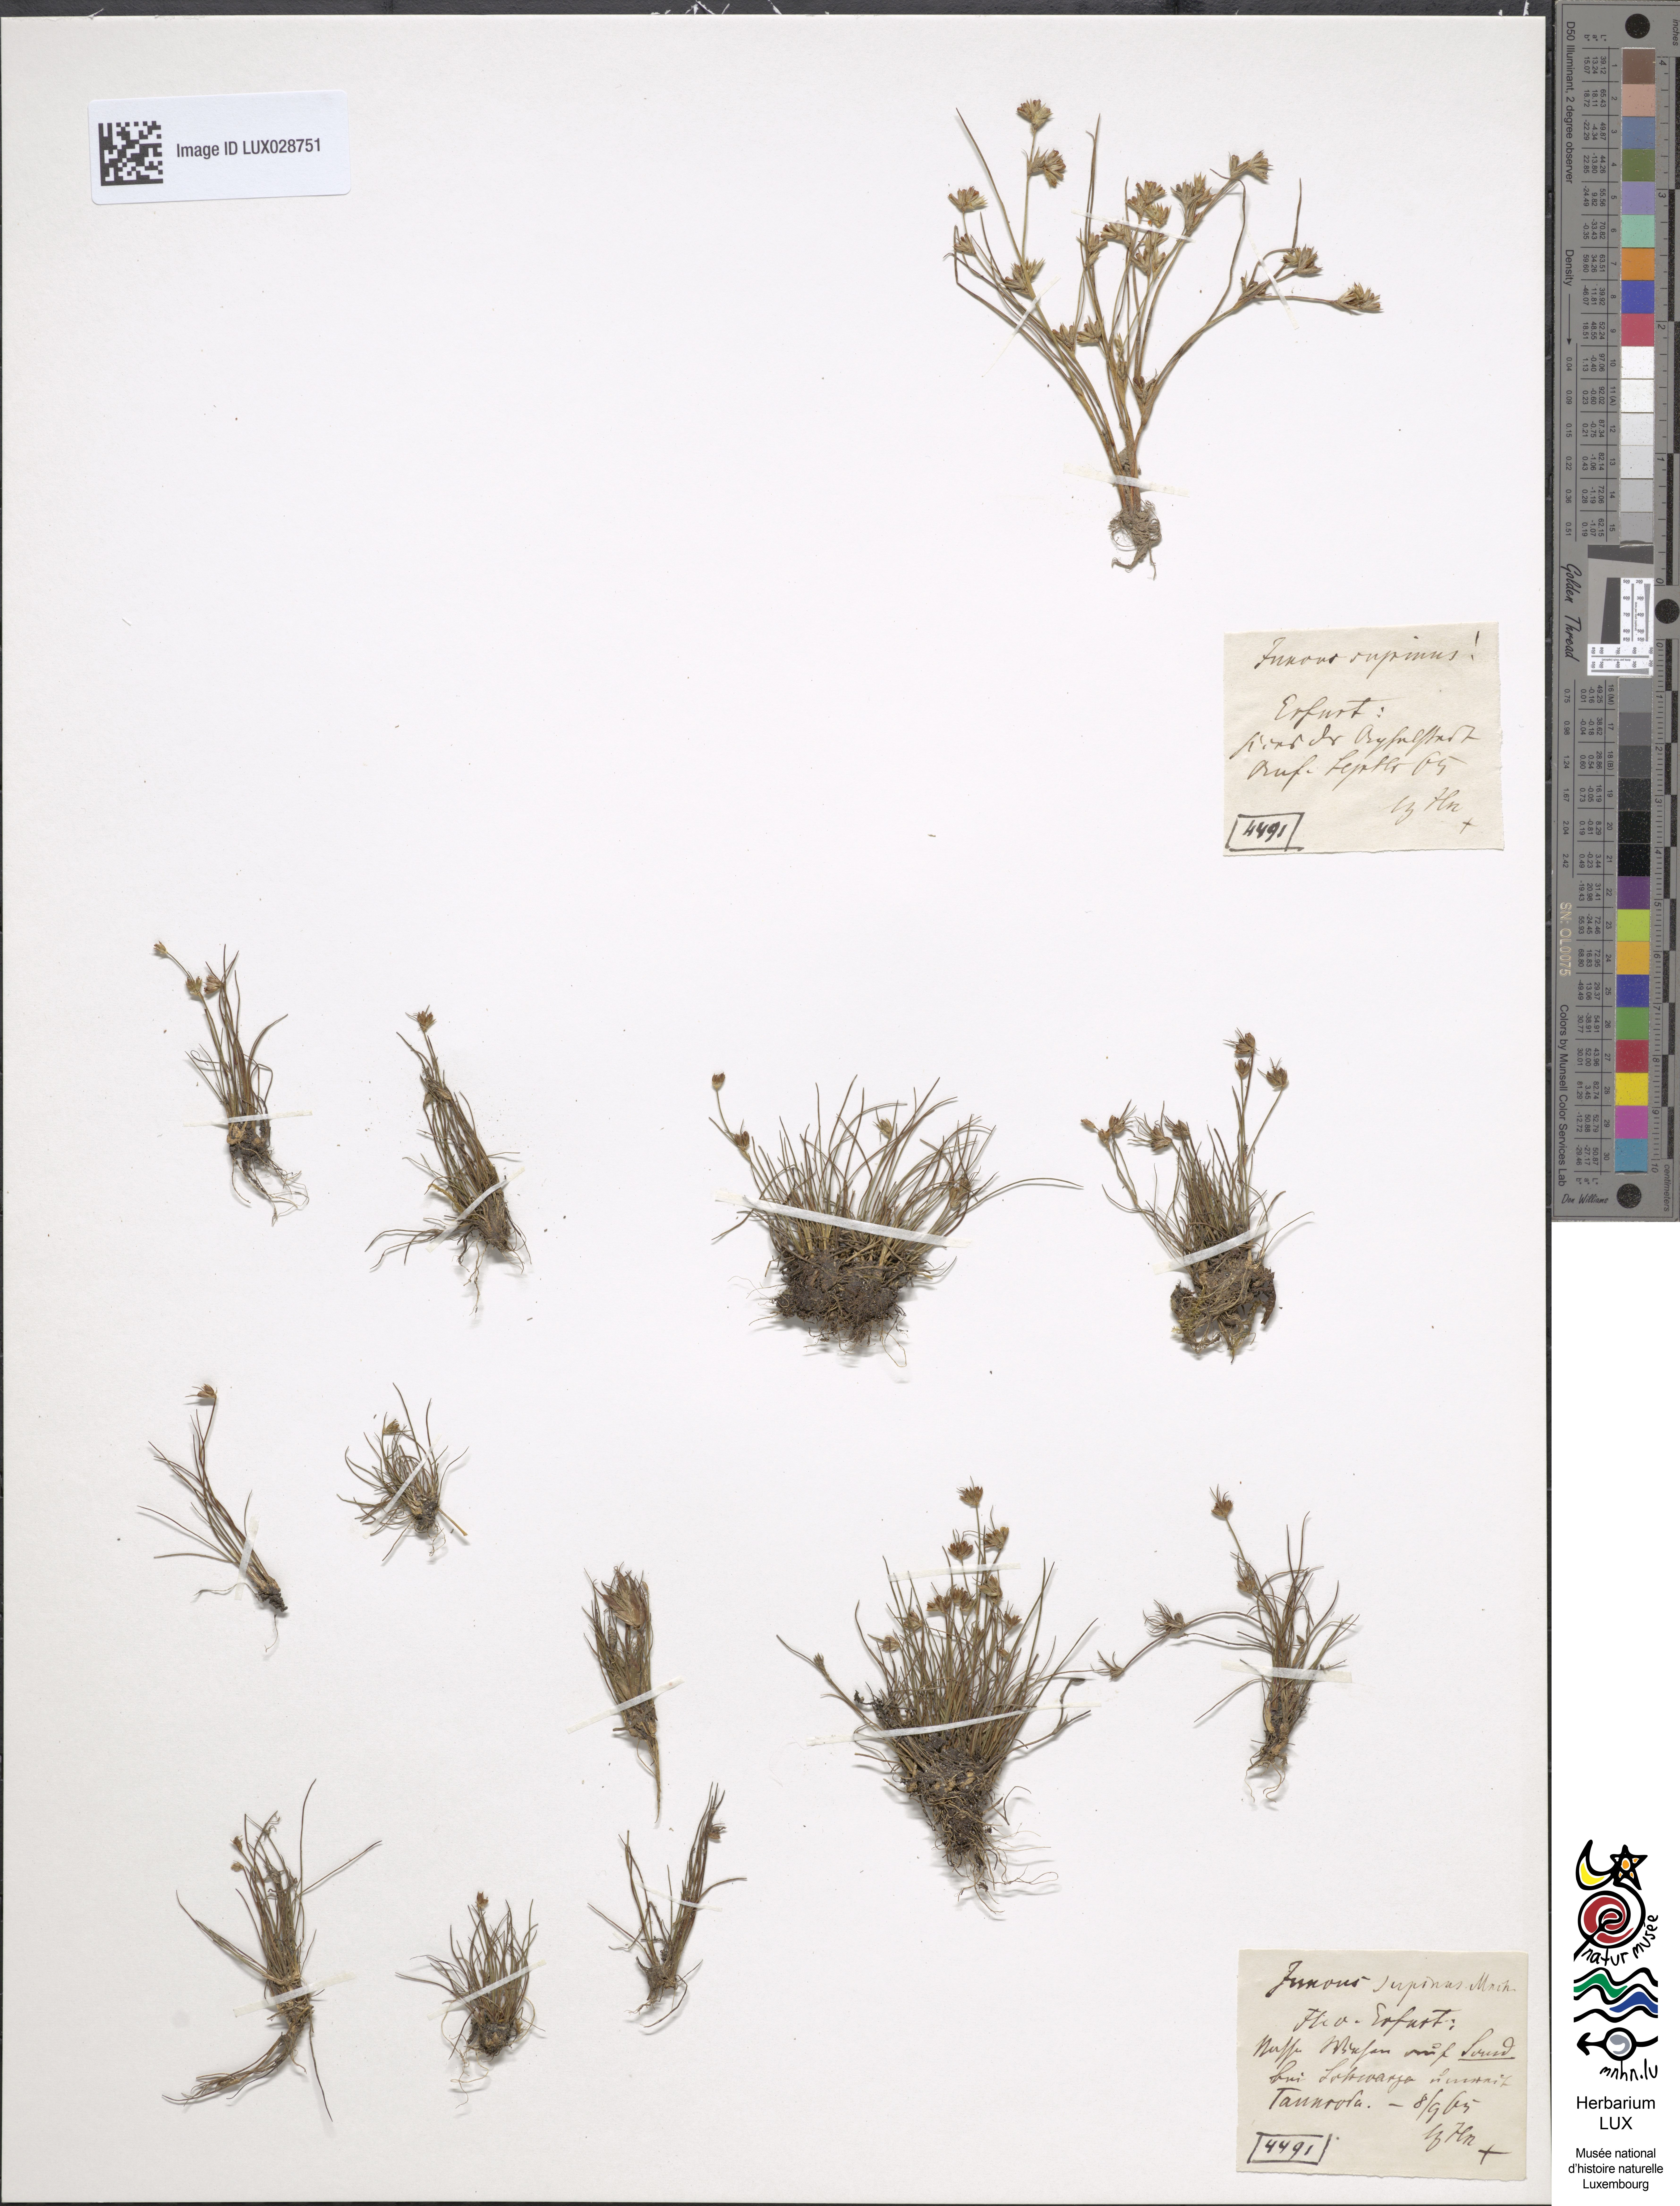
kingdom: Plantae
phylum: Tracheophyta
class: Liliopsida
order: Poales
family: Juncaceae
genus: Juncus
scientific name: Juncus bulbosus
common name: Bulbous rush
